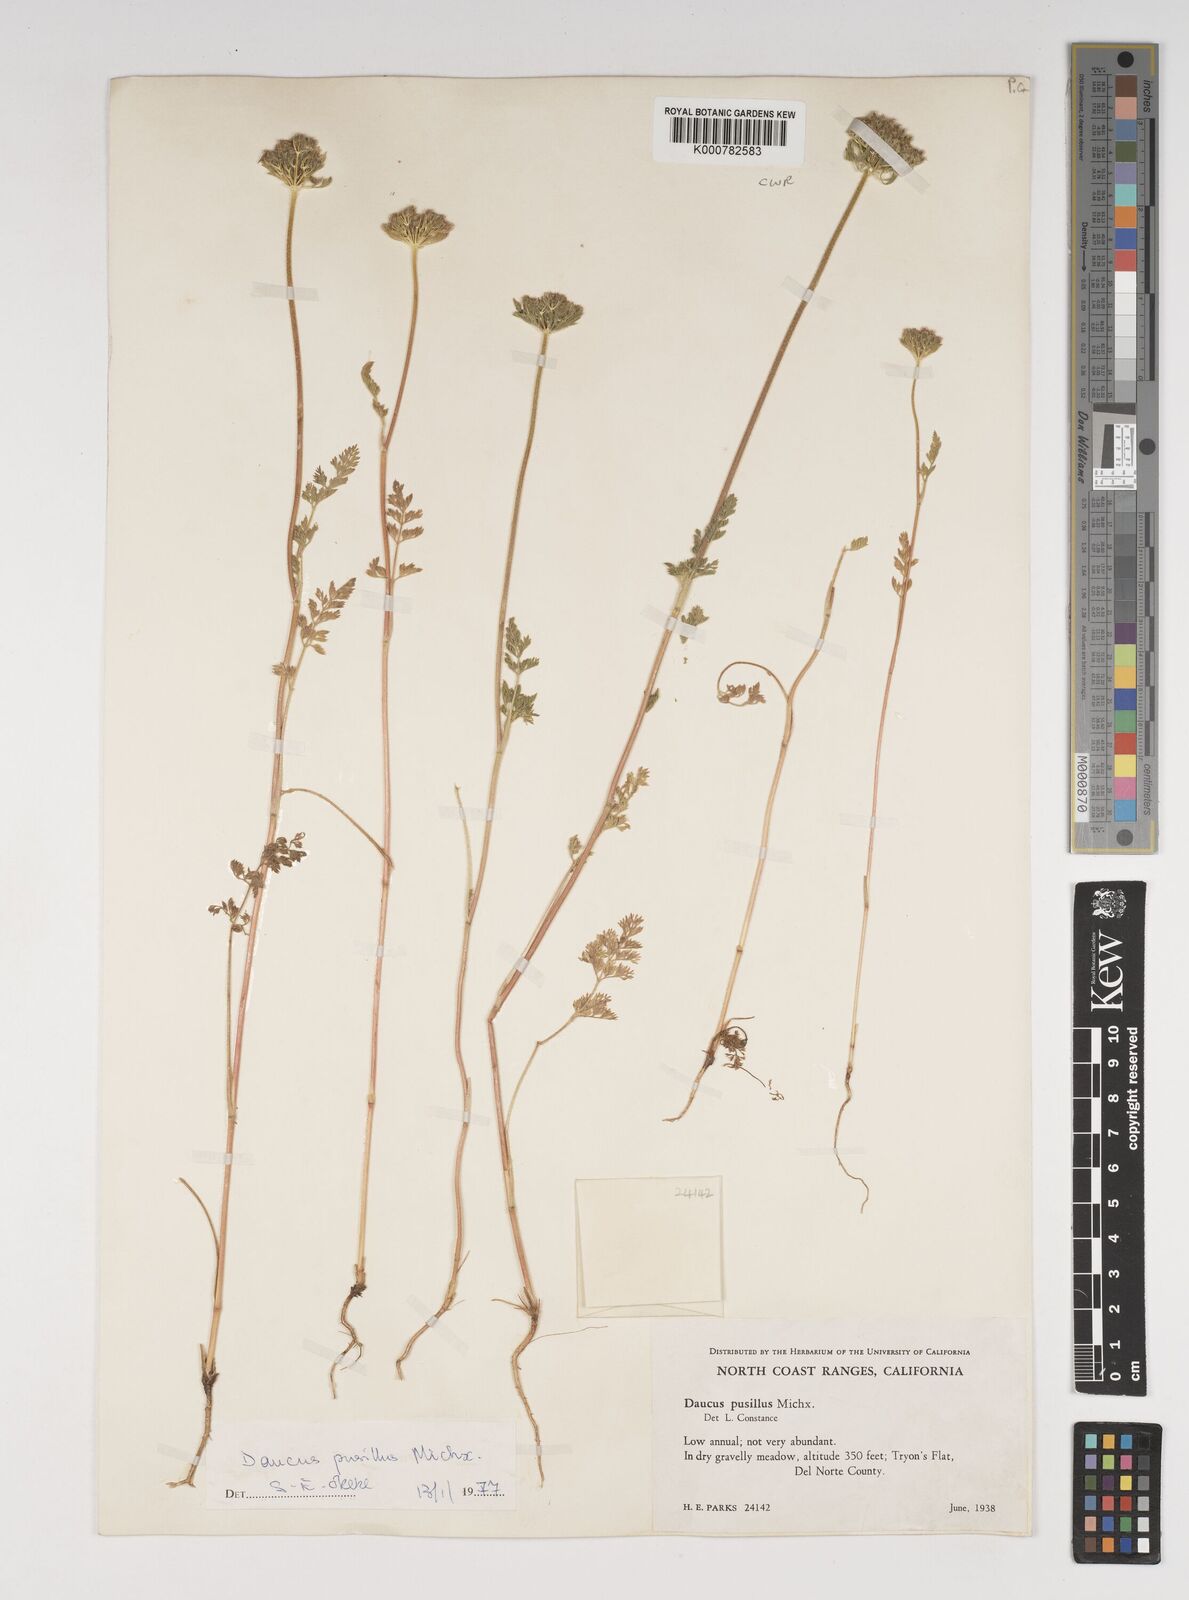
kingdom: Plantae
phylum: Tracheophyta
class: Magnoliopsida
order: Apiales
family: Apiaceae
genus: Daucus
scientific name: Daucus pusillus
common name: Southwest wild carrot
